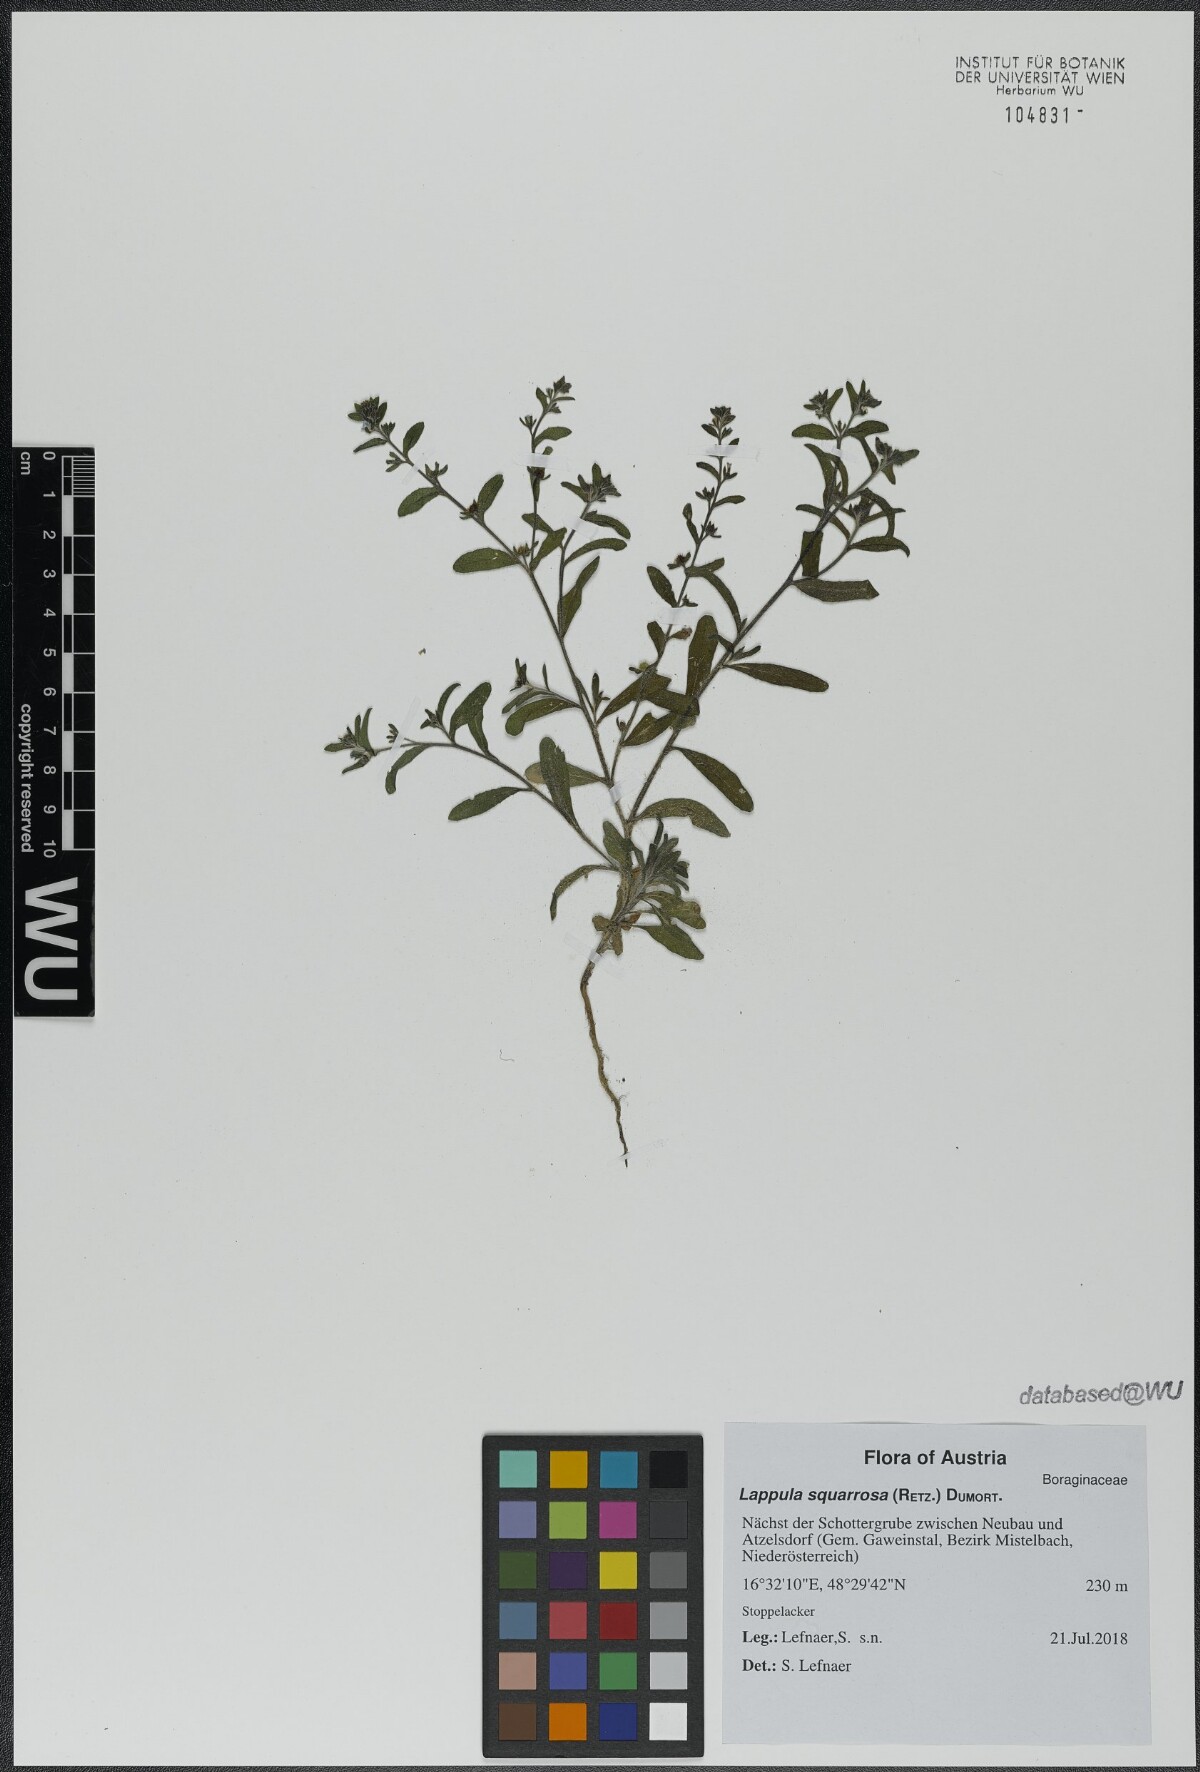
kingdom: Plantae
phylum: Tracheophyta
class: Magnoliopsida
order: Boraginales
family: Boraginaceae
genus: Lappula
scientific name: Lappula squarrosa
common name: European stickseed
